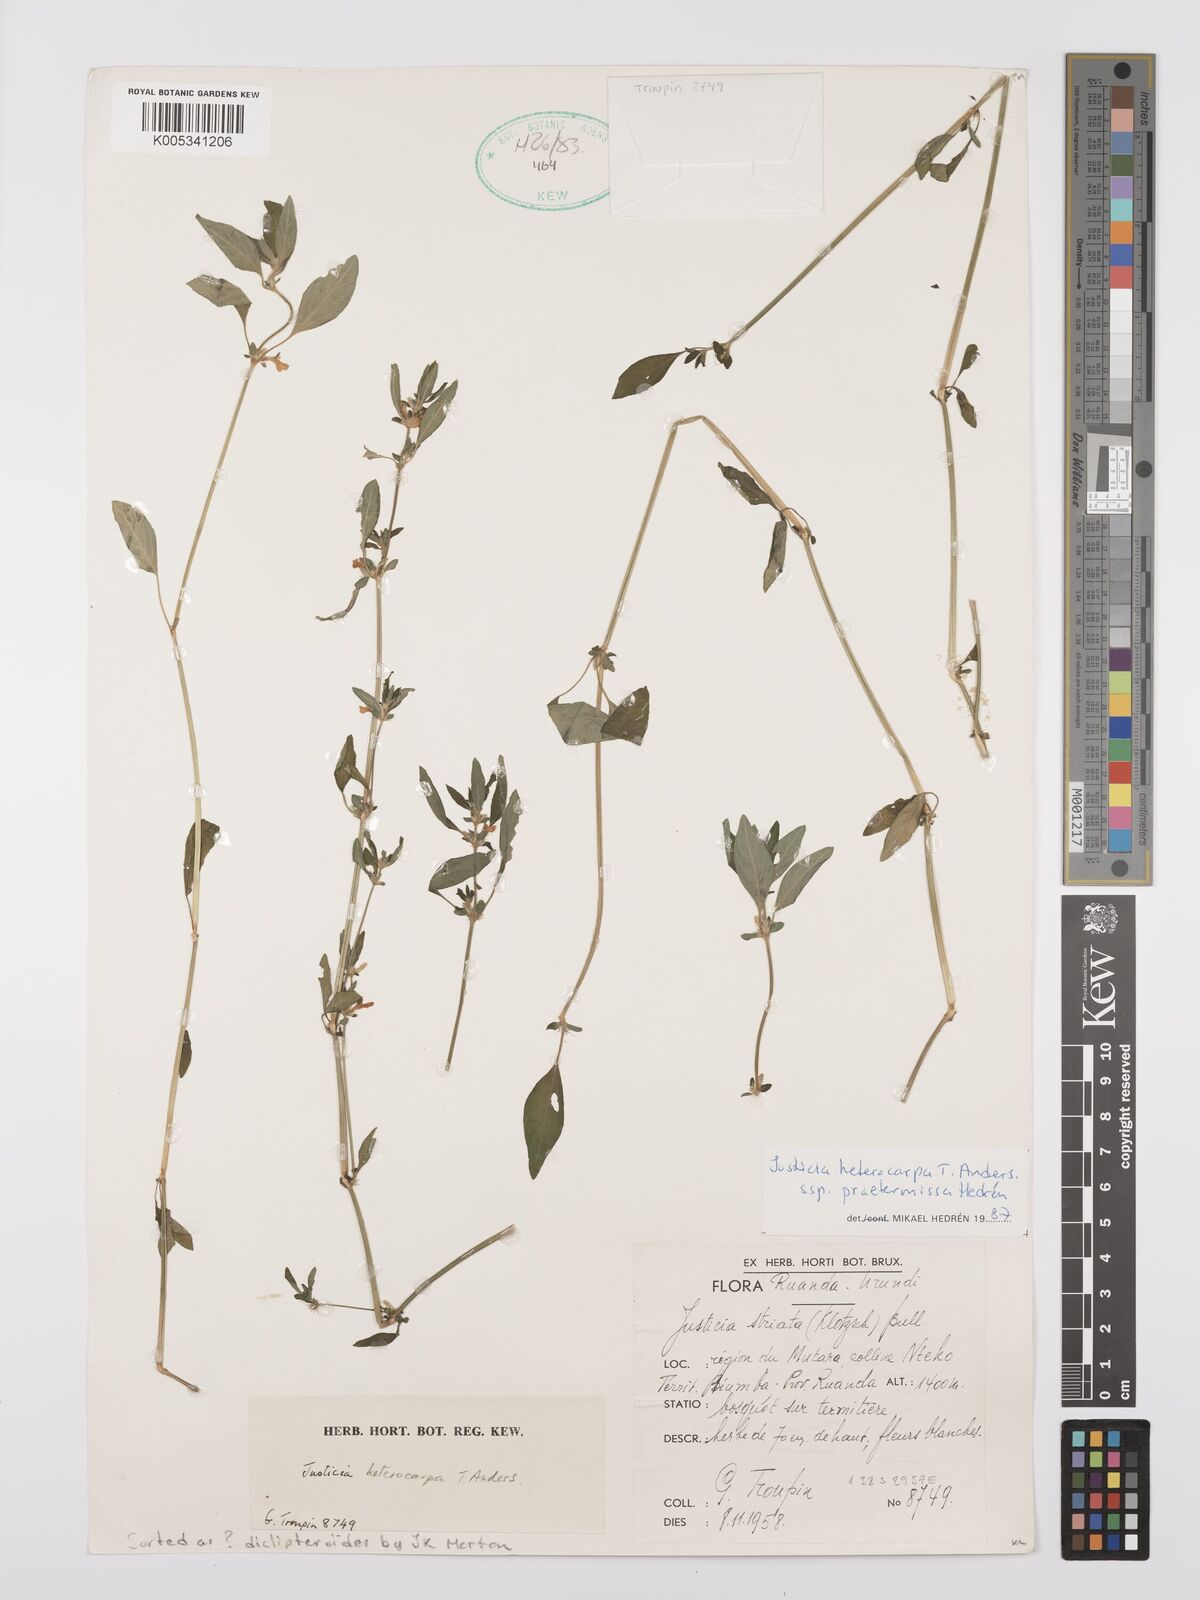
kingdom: Plantae
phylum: Tracheophyta
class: Magnoliopsida
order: Lamiales
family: Acanthaceae
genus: Justicia
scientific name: Justicia heterocarpa
